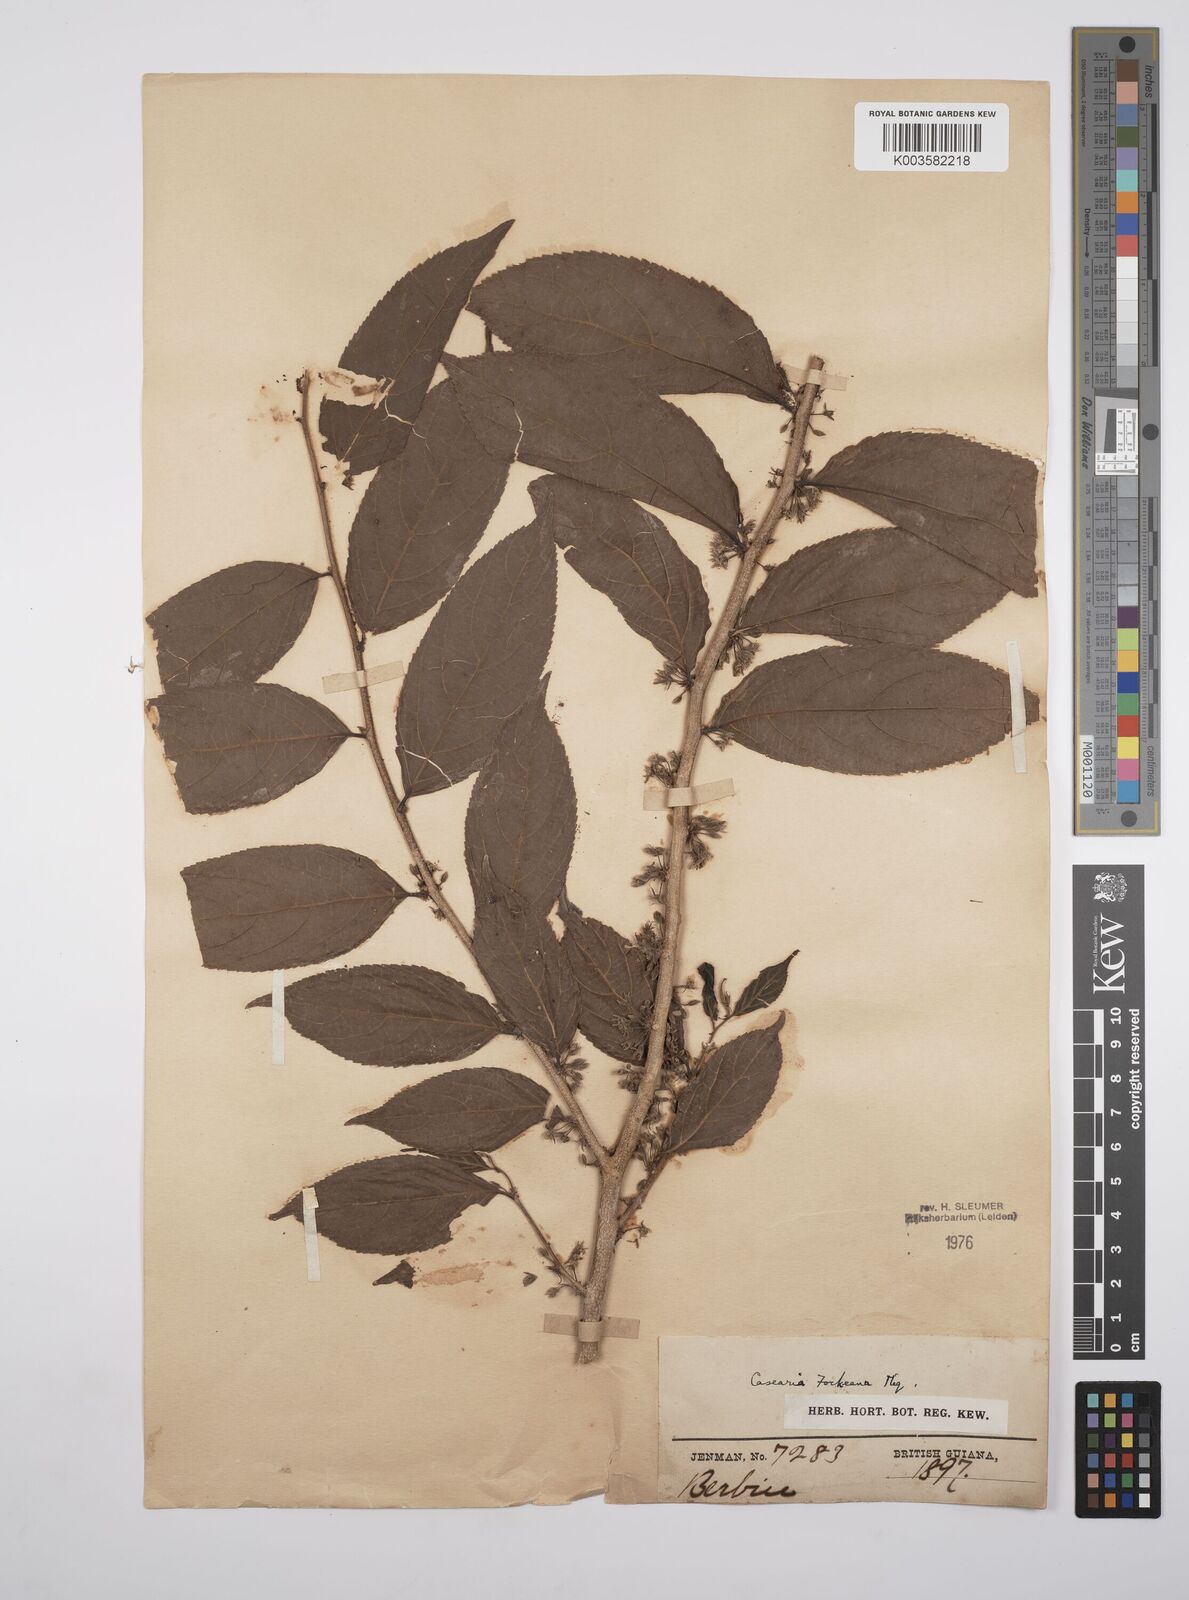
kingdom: Plantae
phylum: Tracheophyta
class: Magnoliopsida
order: Malpighiales
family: Salicaceae
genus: Casearia
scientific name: Casearia mariquitensis
